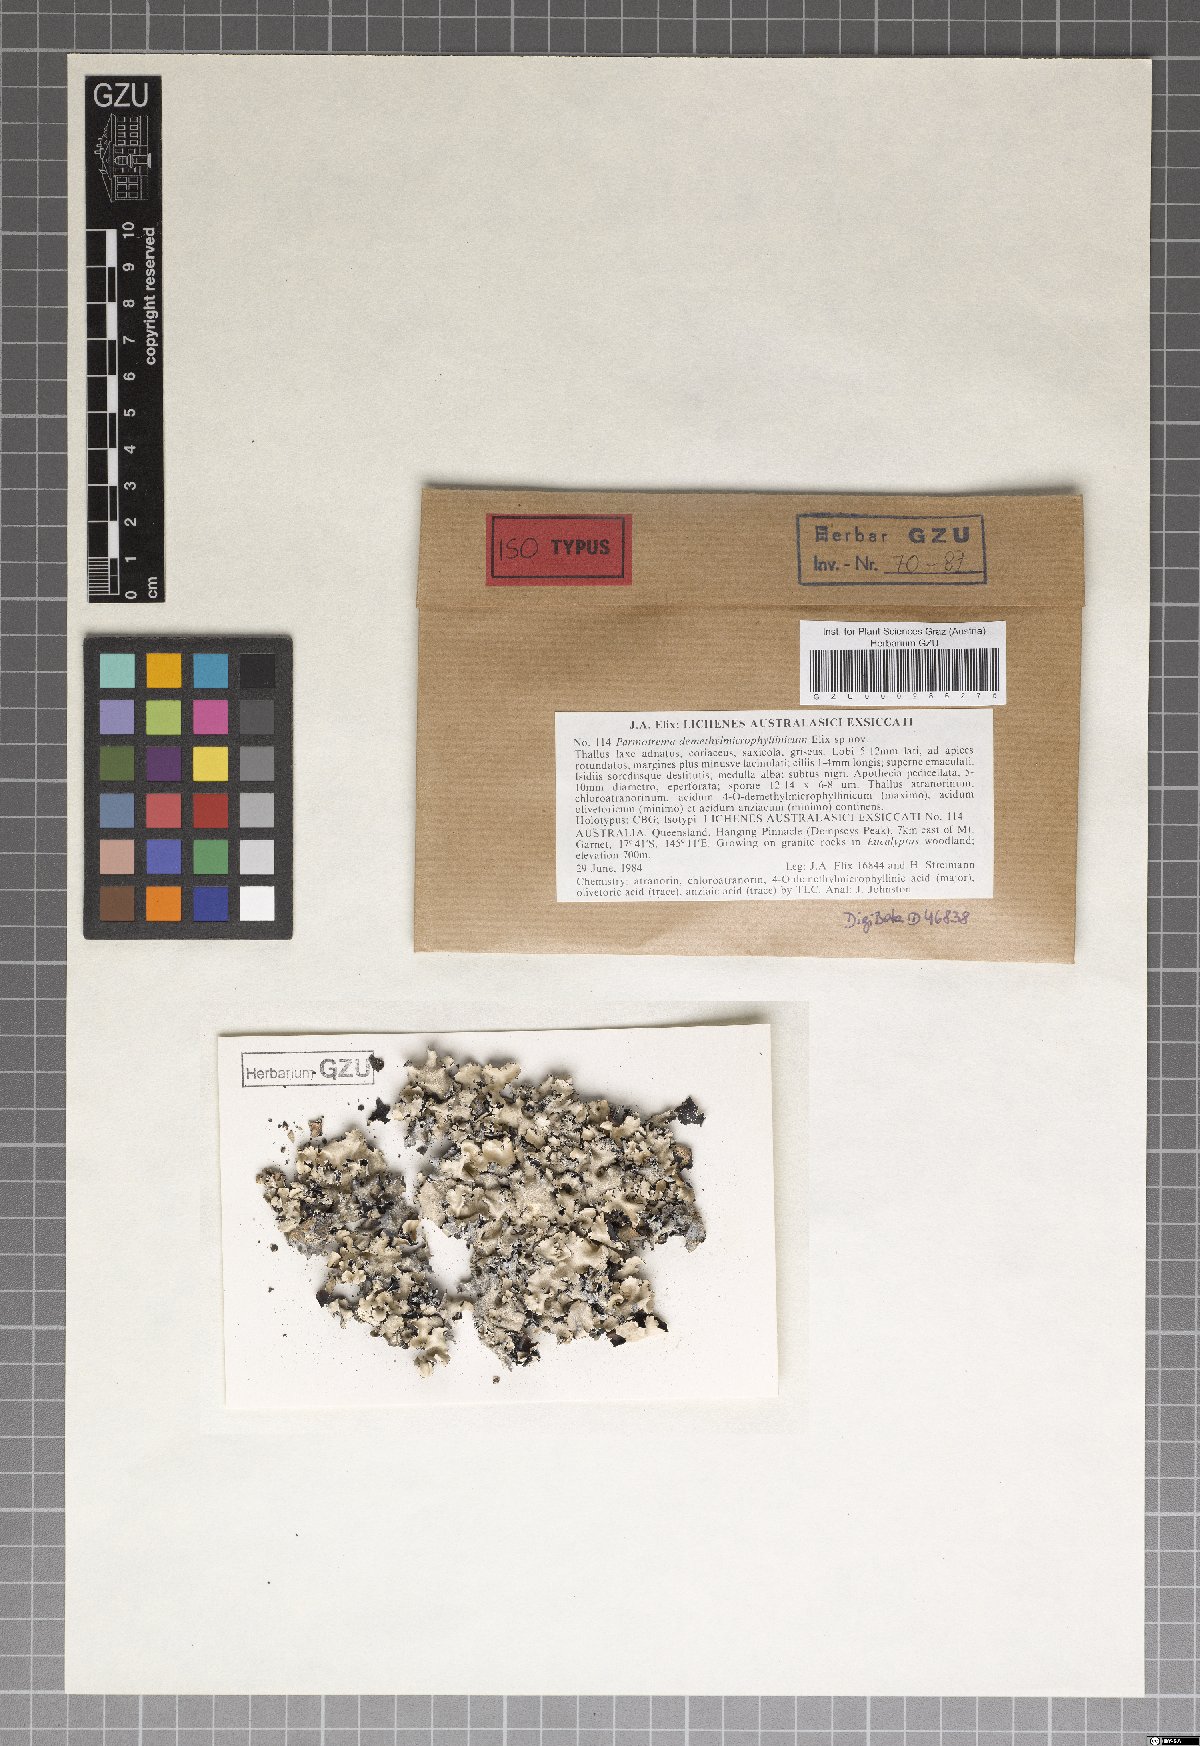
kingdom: Fungi
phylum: Ascomycota
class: Lecanoromycetes
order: Lecanorales
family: Parmeliaceae
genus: Parmotrema
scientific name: Parmotrema demethylmicrophyllinicum
